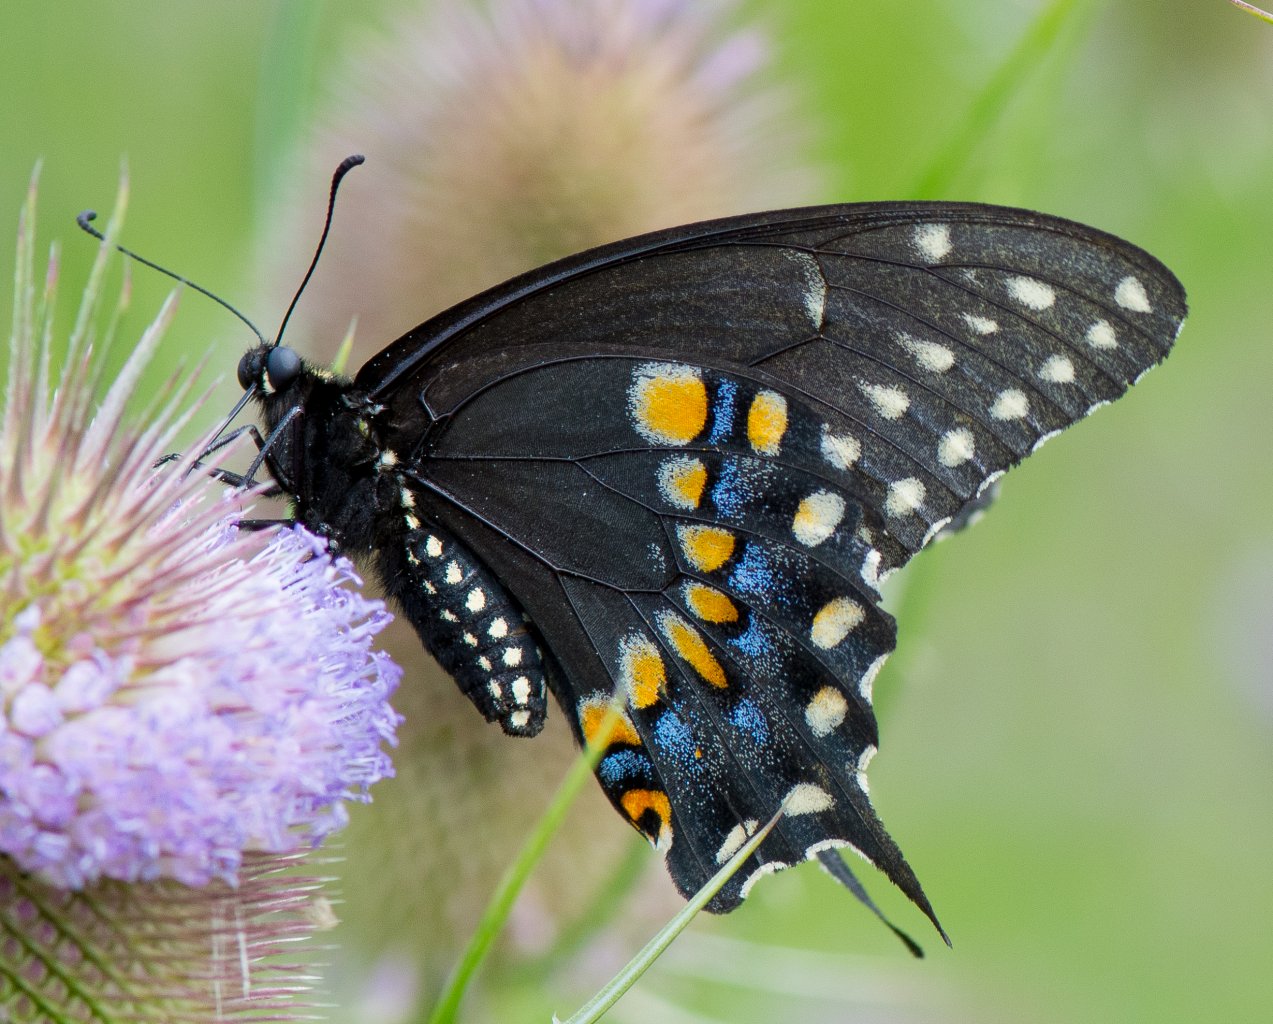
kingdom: Animalia
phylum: Arthropoda
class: Insecta
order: Lepidoptera
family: Papilionidae
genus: Papilio
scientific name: Papilio polyxenes
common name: Black Swallowtail
